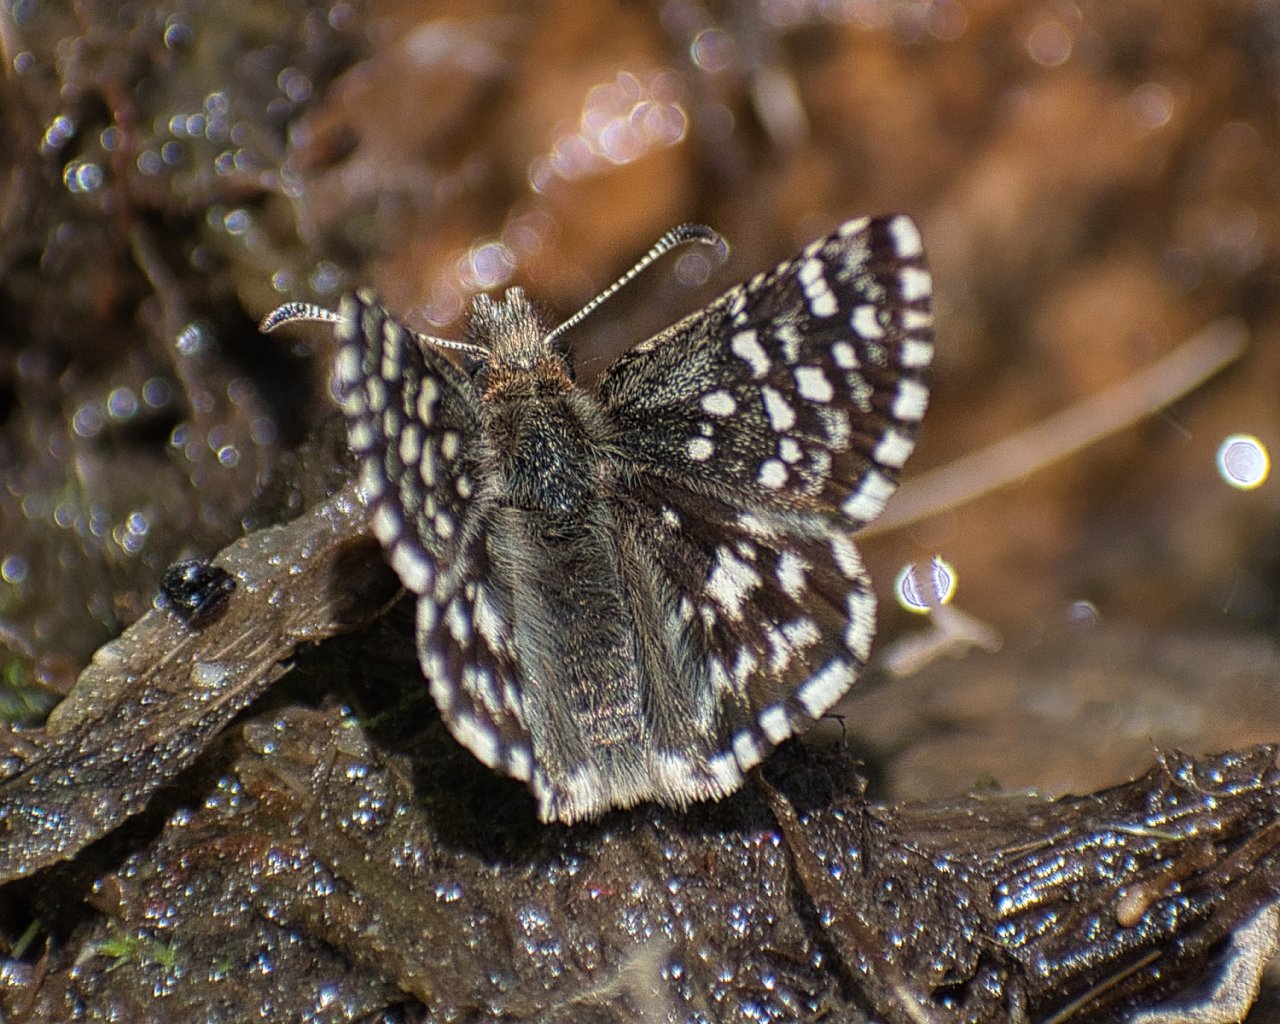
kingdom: Animalia
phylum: Arthropoda
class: Insecta
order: Lepidoptera
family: Hesperiidae
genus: Pyrgus
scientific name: Pyrgus ruralis
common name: Two-banded Checkered-Skipper
